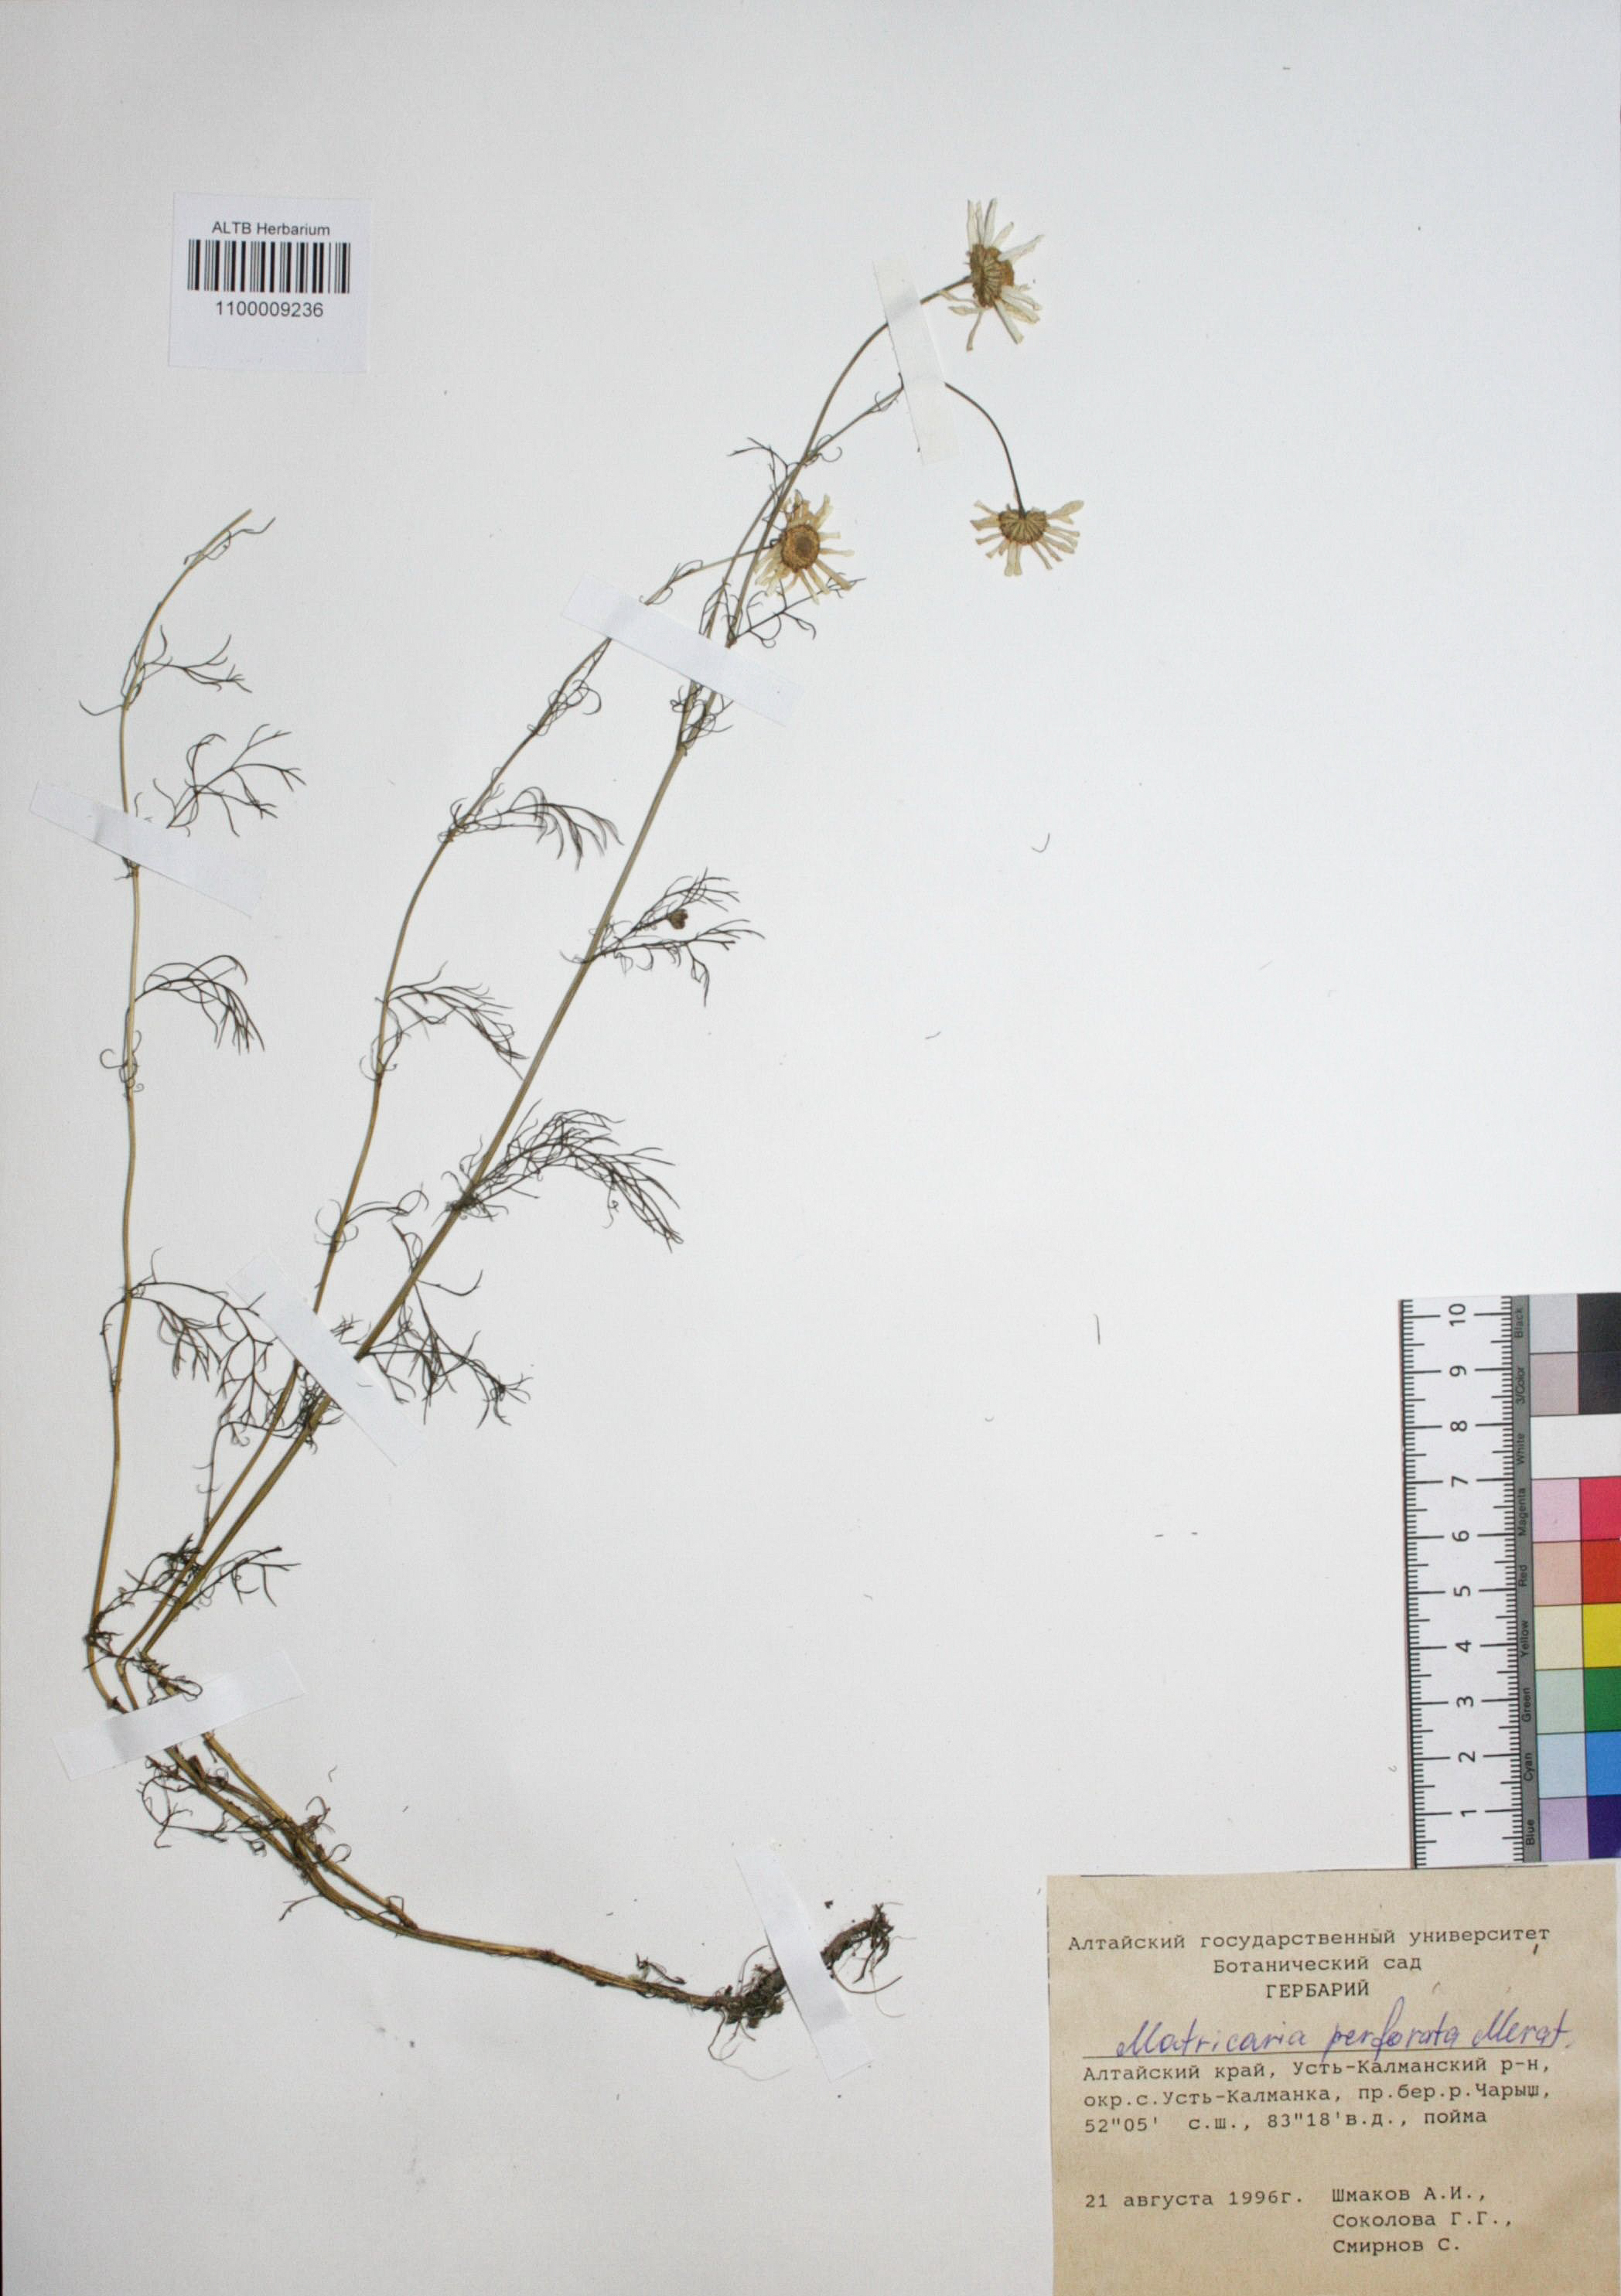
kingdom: Plantae
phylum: Tracheophyta
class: Magnoliopsida
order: Asterales
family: Asteraceae
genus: Tripleurospermum
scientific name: Tripleurospermum inodorum
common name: Scentless mayweed
